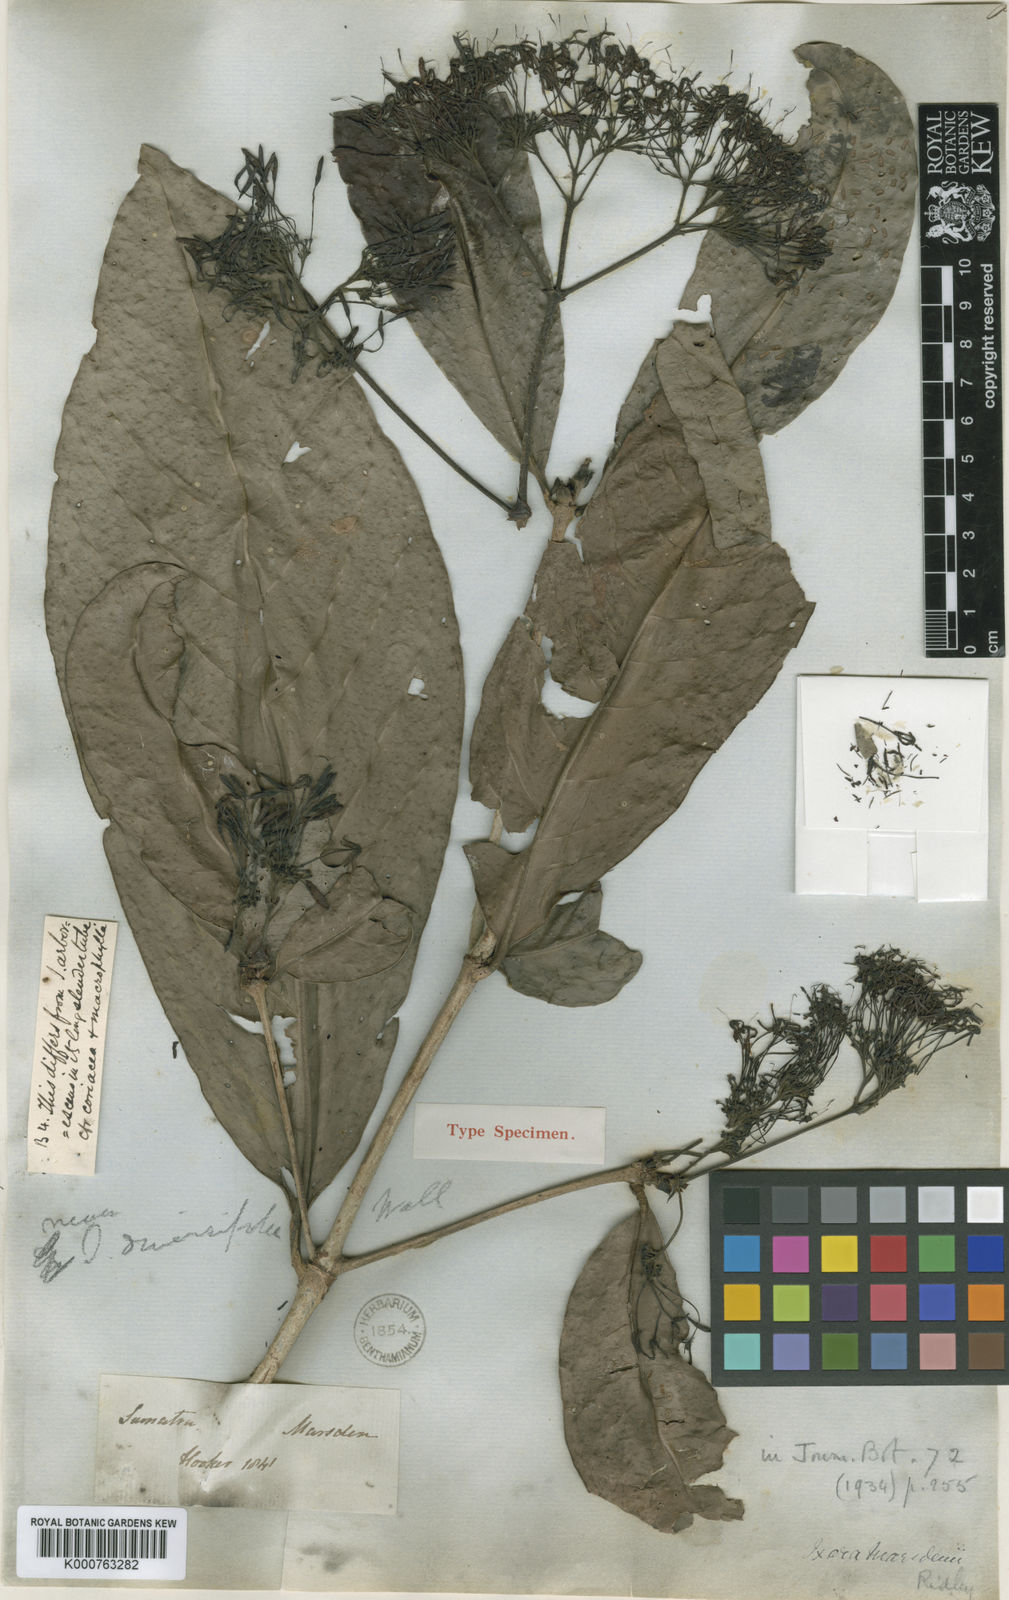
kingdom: Plantae
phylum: Tracheophyta
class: Magnoliopsida
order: Gentianales
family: Rubiaceae
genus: Ixora
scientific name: Ixora marsdenii
